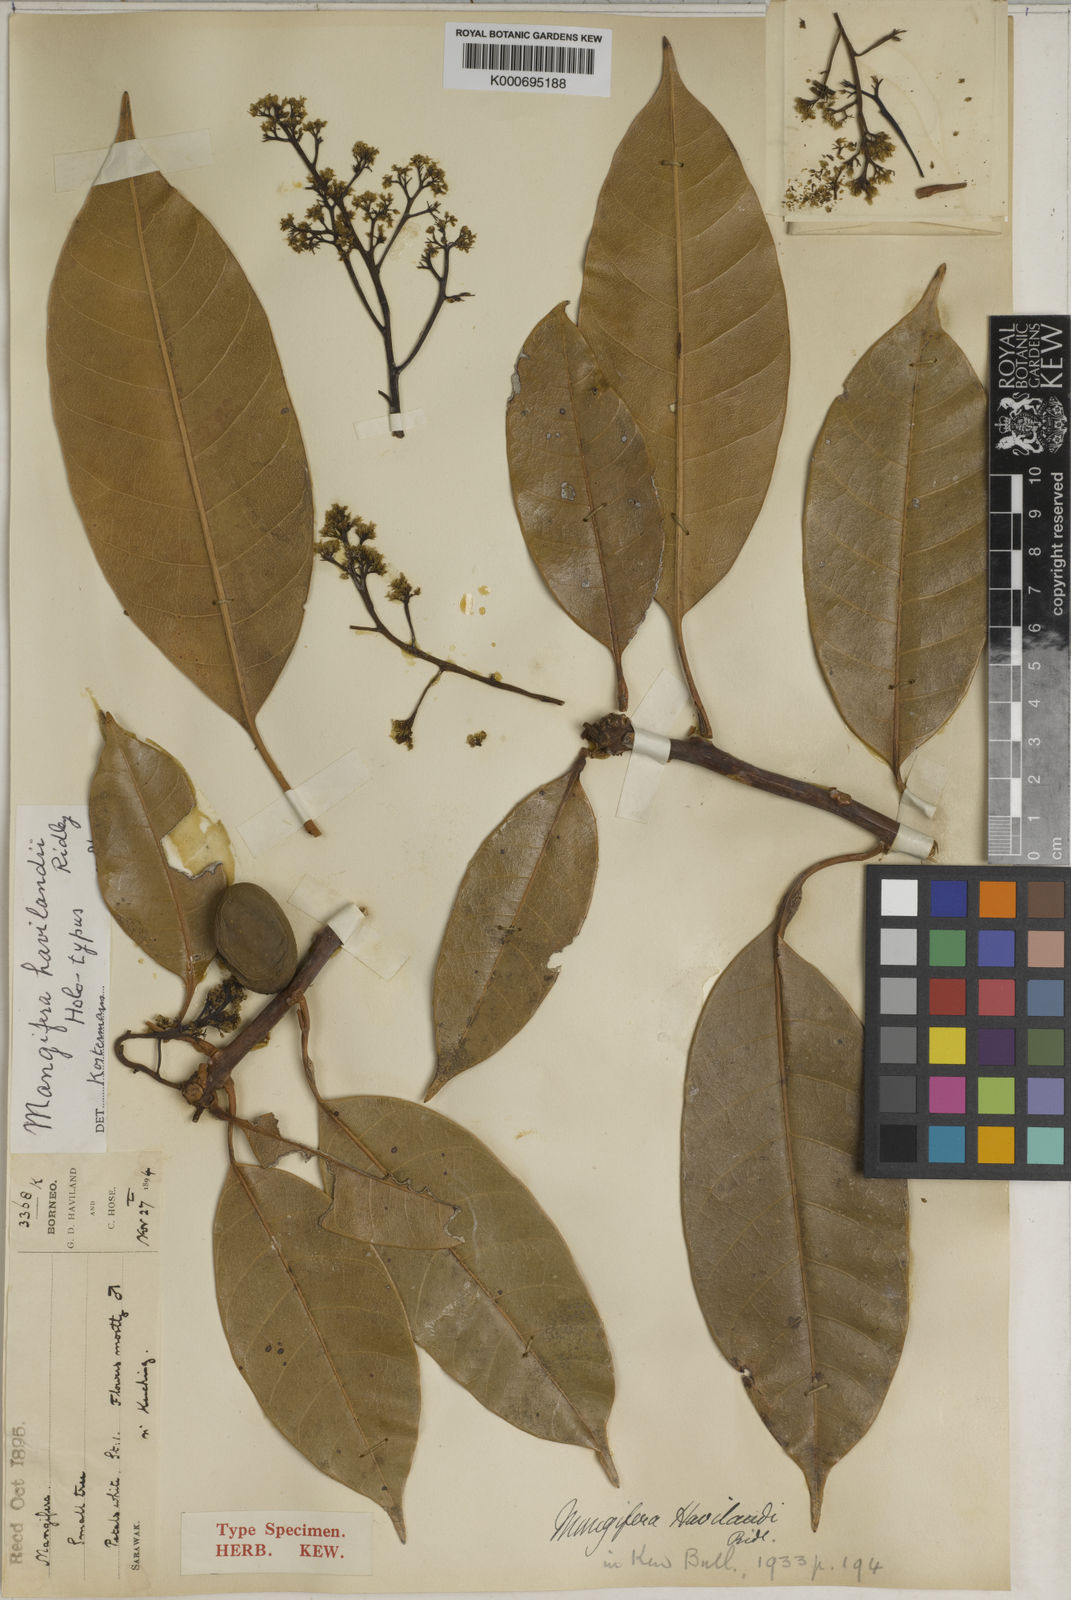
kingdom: Plantae
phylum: Tracheophyta
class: Magnoliopsida
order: Sapindales
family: Anacardiaceae
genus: Mangifera
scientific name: Mangifera havilandii
